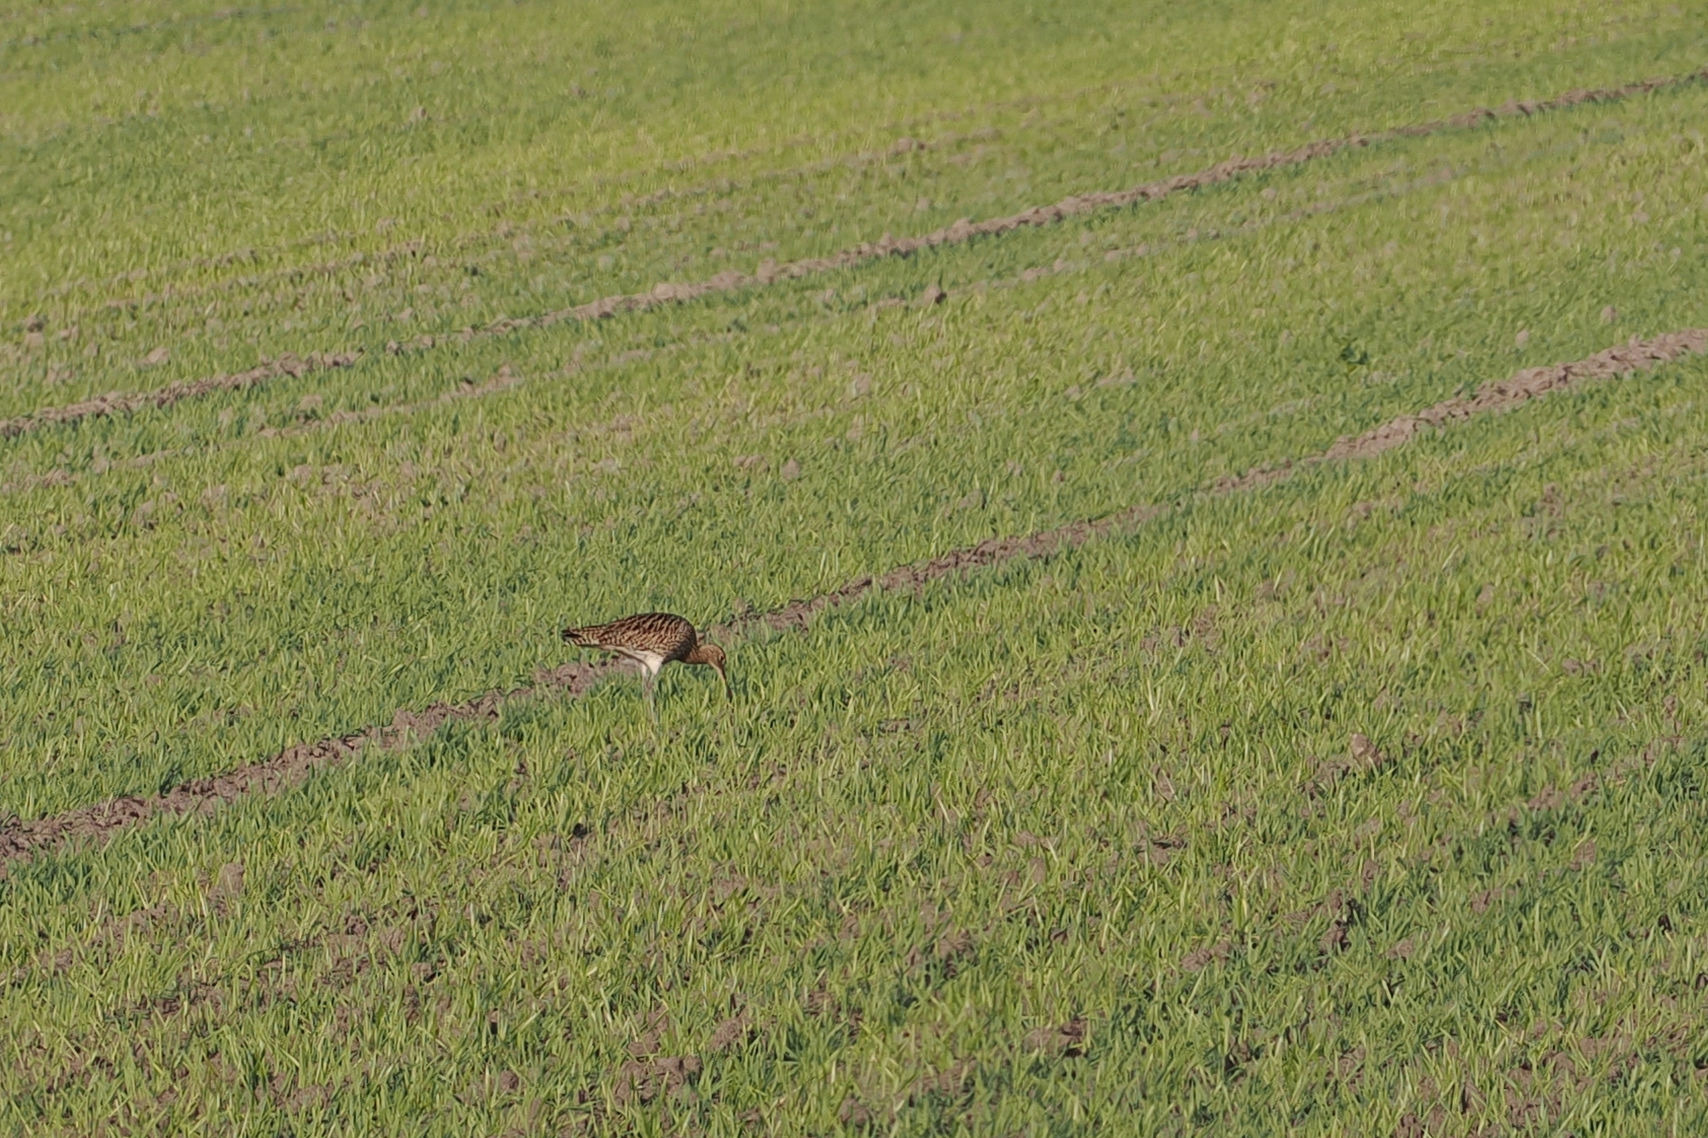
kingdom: Animalia
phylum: Chordata
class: Aves
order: Charadriiformes
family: Scolopacidae
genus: Numenius
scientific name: Numenius arquata
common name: Storspove
